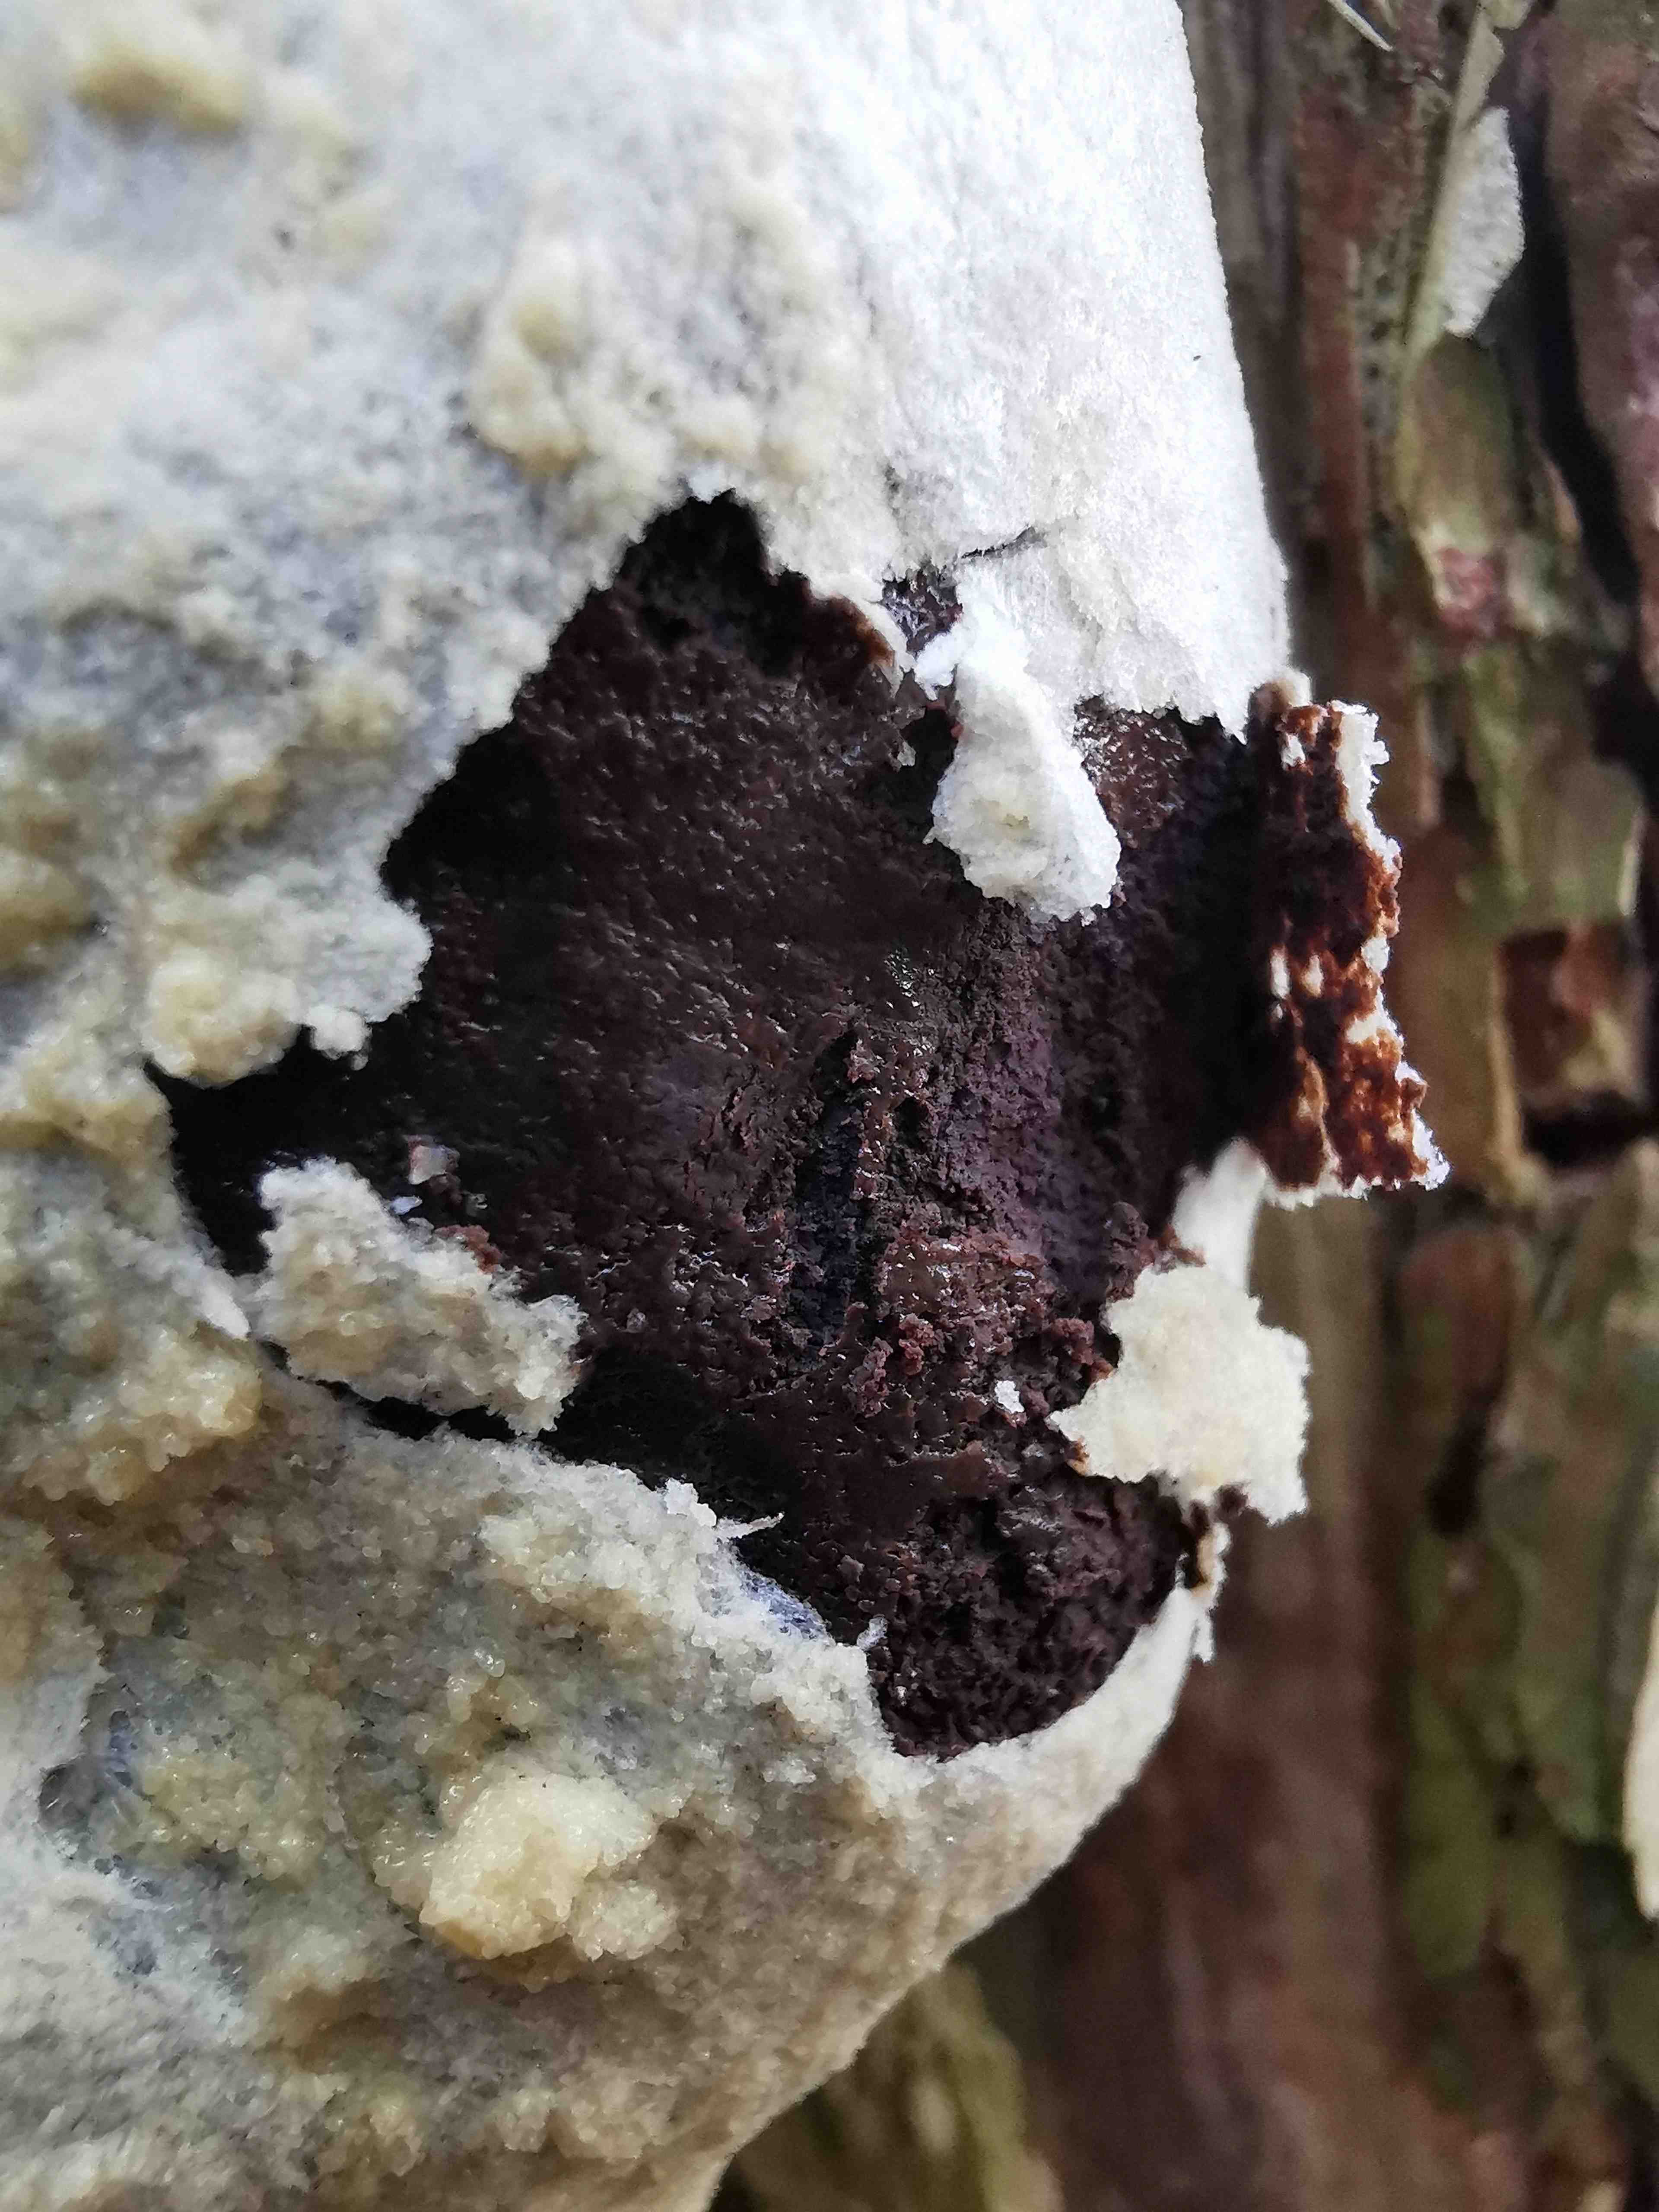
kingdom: Protozoa
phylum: Mycetozoa
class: Myxomycetes
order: Cribrariales
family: Tubiferaceae
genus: Reticularia
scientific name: Reticularia lycoperdon
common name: skinnende støvpude
